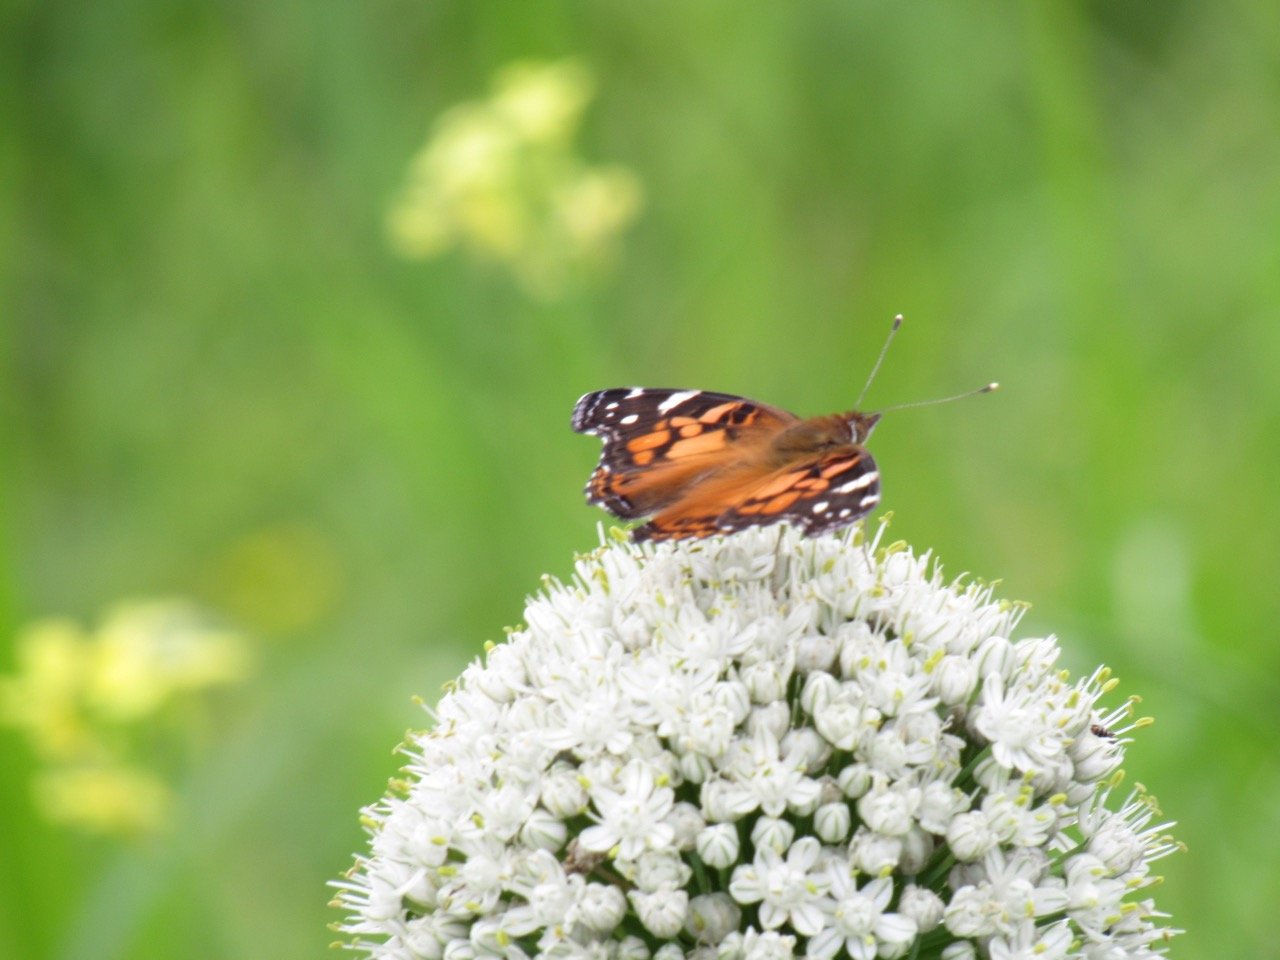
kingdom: Animalia
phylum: Arthropoda
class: Insecta
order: Lepidoptera
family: Nymphalidae
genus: Vanessa
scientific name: Vanessa virginiensis
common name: American Lady
